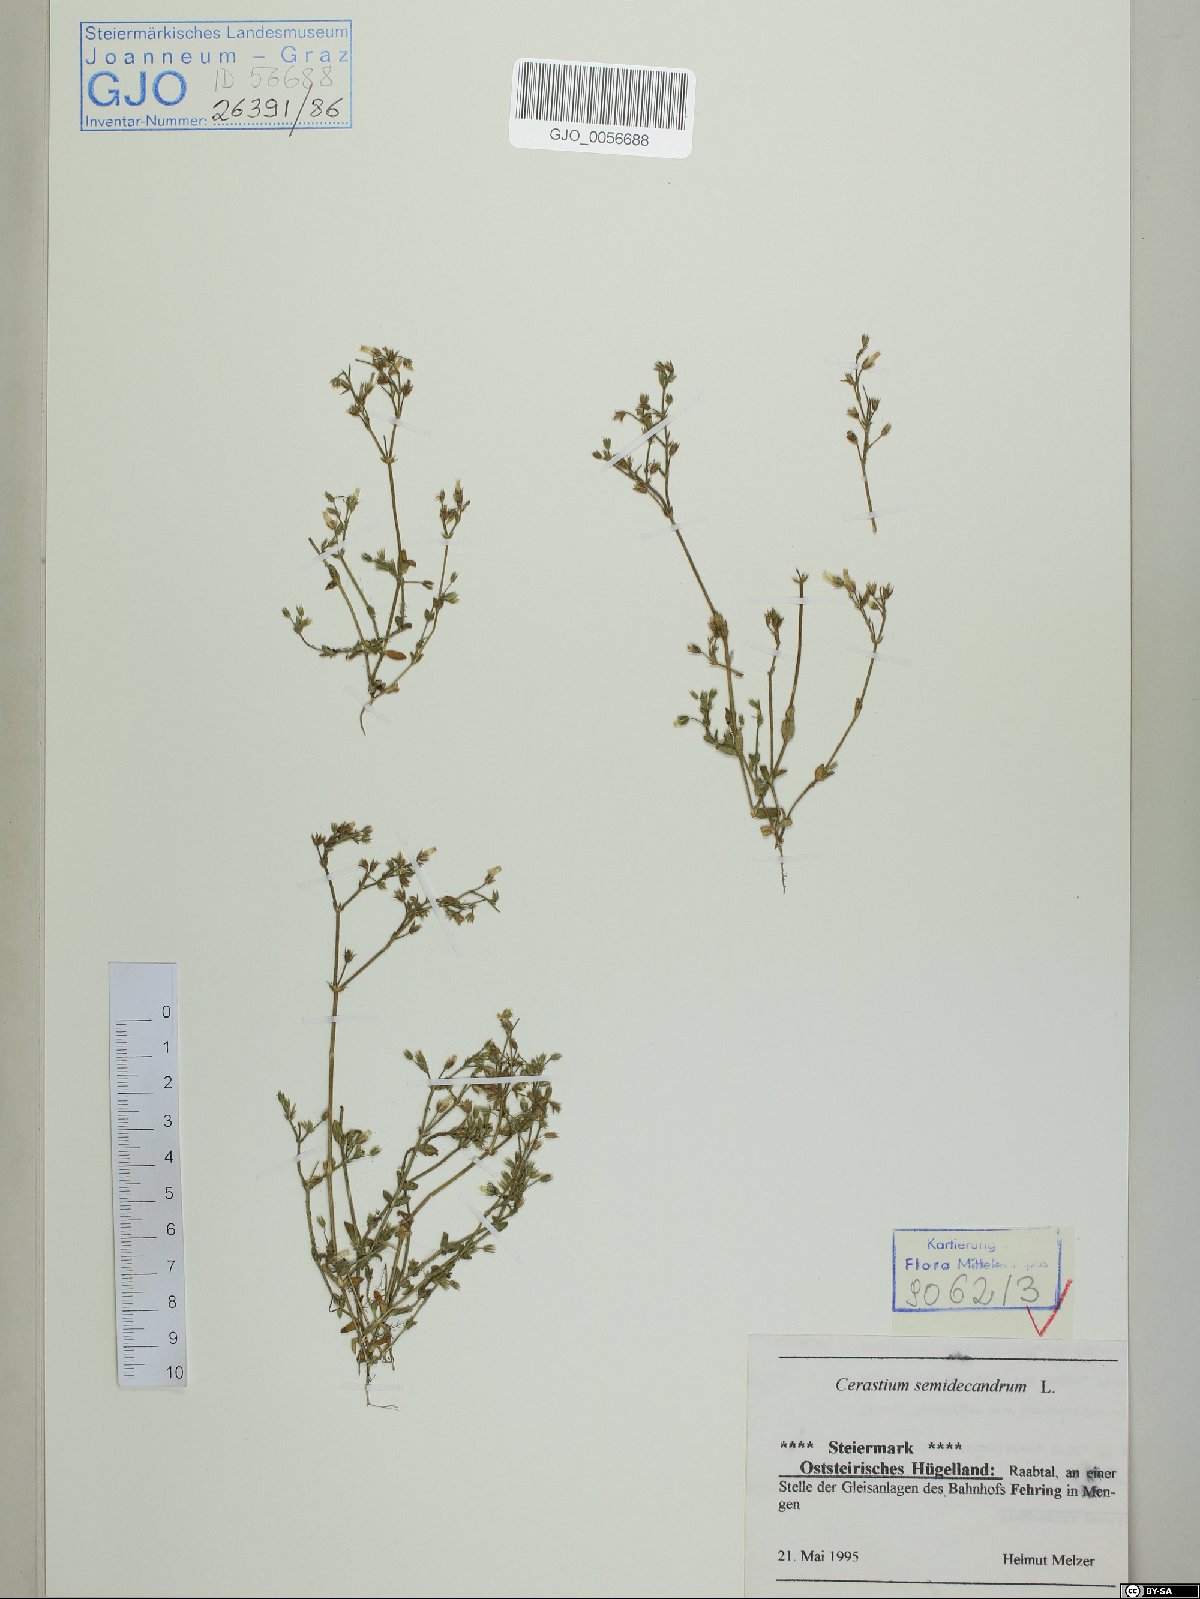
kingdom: Plantae
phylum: Tracheophyta
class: Magnoliopsida
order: Caryophyllales
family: Caryophyllaceae
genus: Cerastium
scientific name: Cerastium semidecandrum
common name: Little mouse-ear
